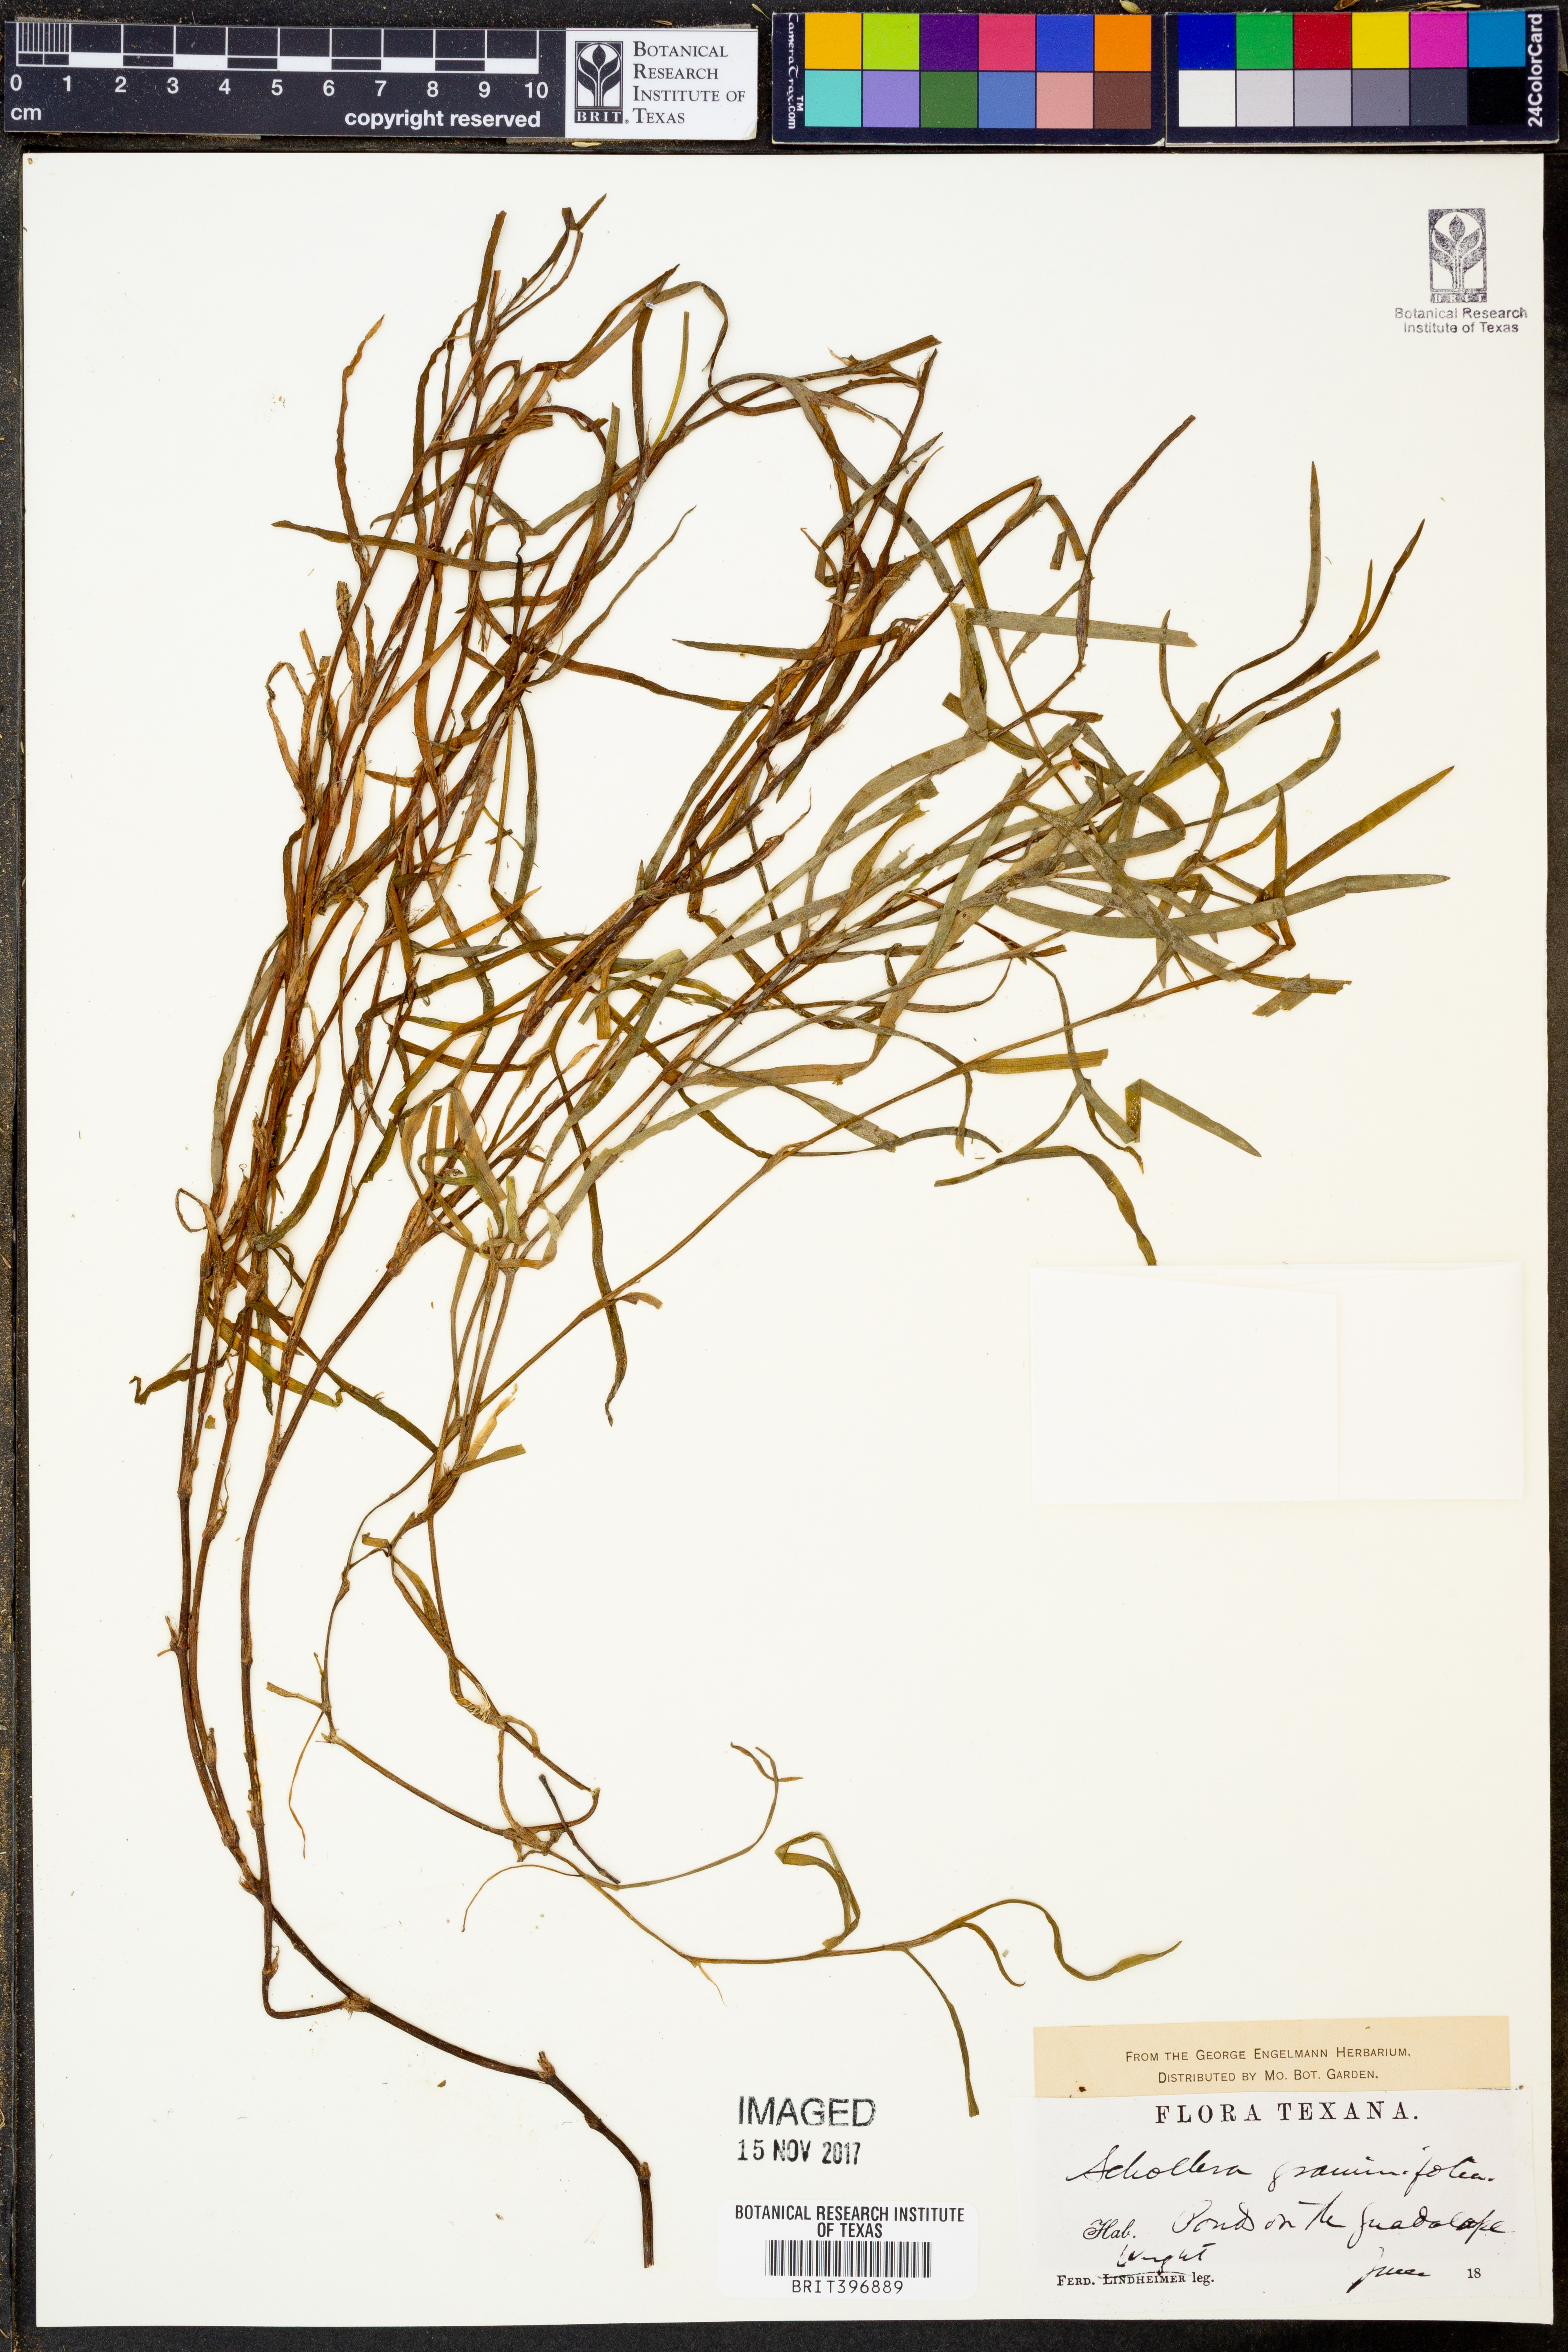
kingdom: Plantae
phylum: Tracheophyta
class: Liliopsida
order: Commelinales
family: Pontederiaceae
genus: Heteranthera
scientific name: Heteranthera dubia
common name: Grass-leaved mud plantain
